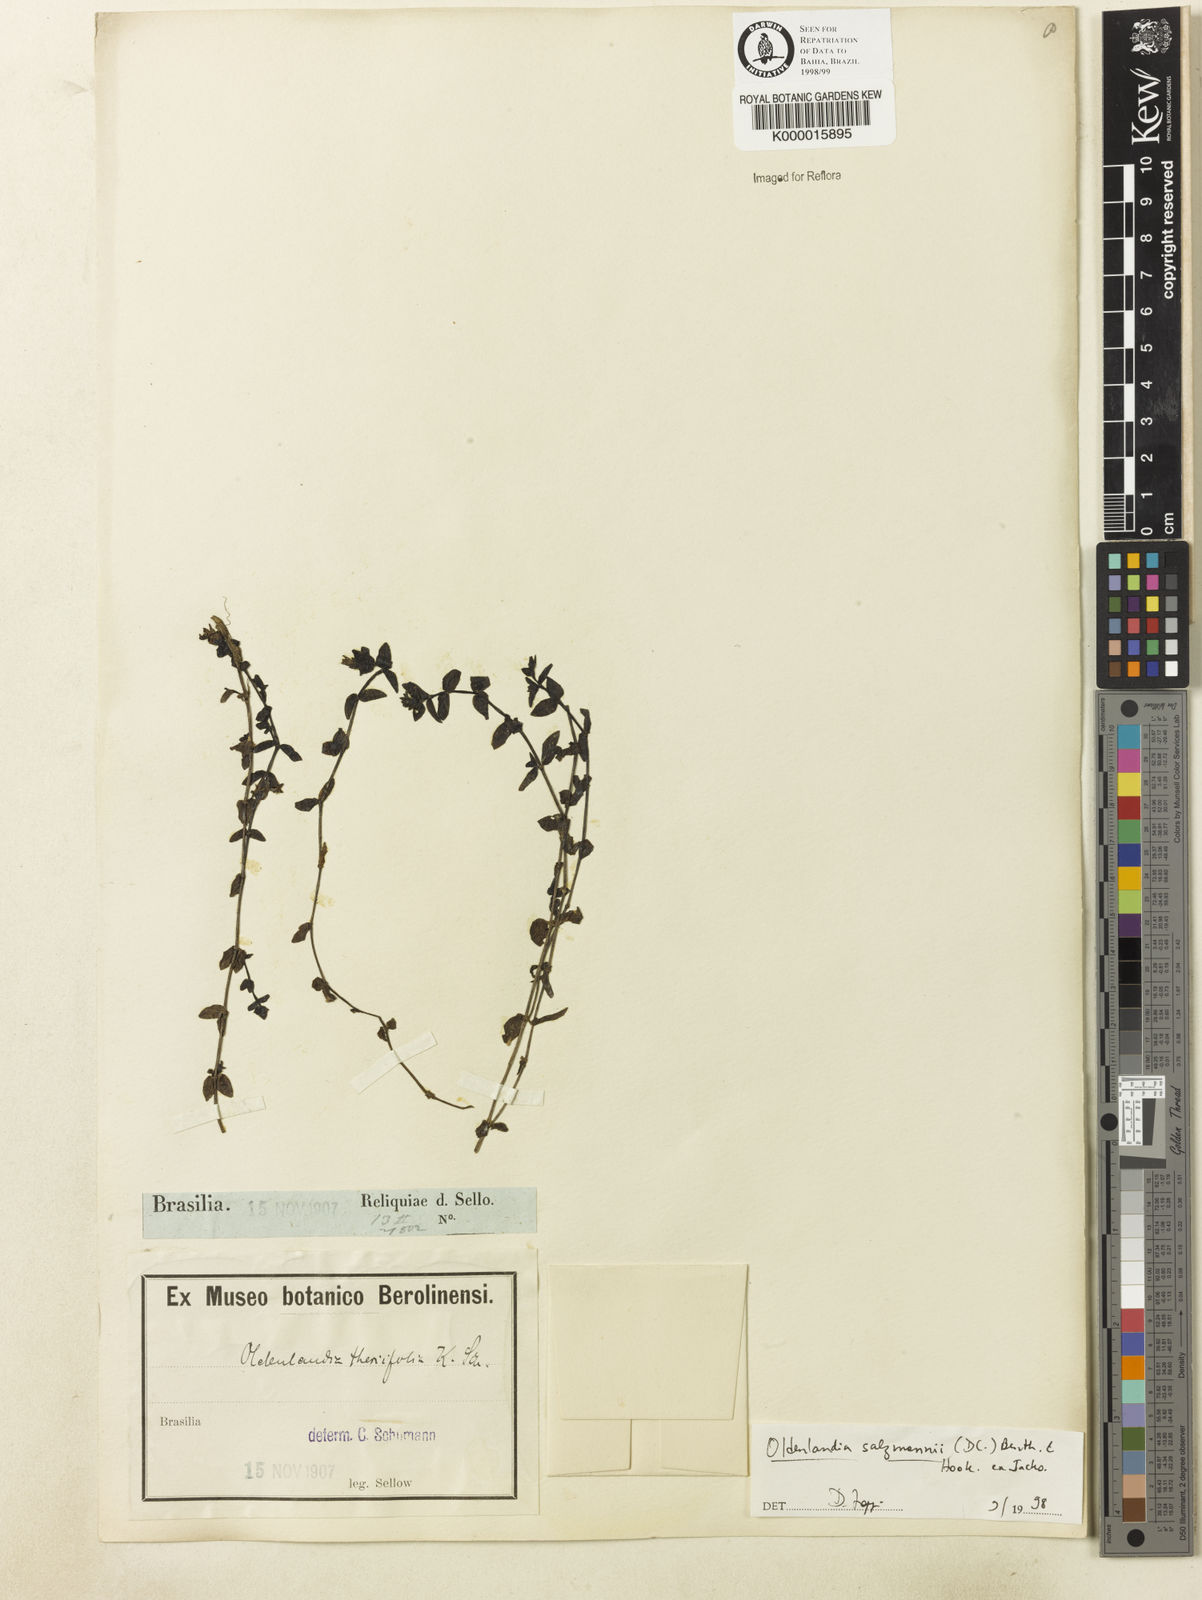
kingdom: Plantae
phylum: Tracheophyta
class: Magnoliopsida
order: Gentianales
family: Rubiaceae
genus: Oldenlandia
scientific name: Oldenlandia salzmannii
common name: Salzmann's mille graines
